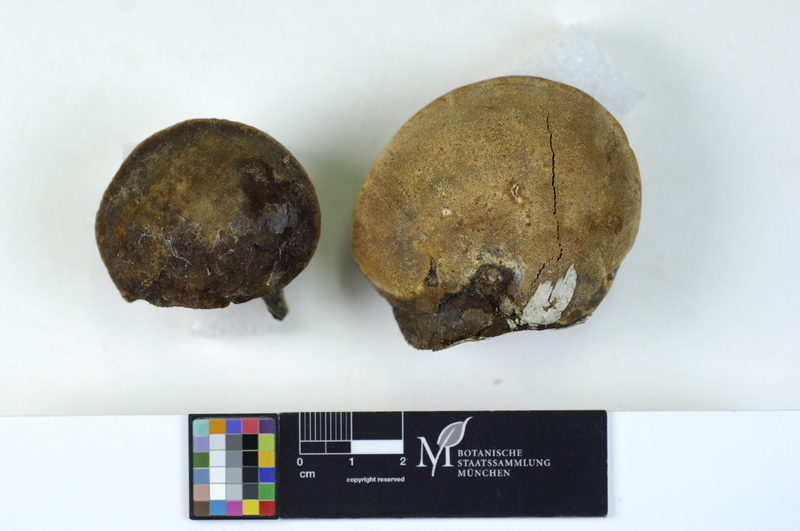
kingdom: Fungi
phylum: Basidiomycota
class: Agaricomycetes
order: Hymenochaetales
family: Hymenochaetaceae
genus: Phellinus
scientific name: Phellinus cinereus
